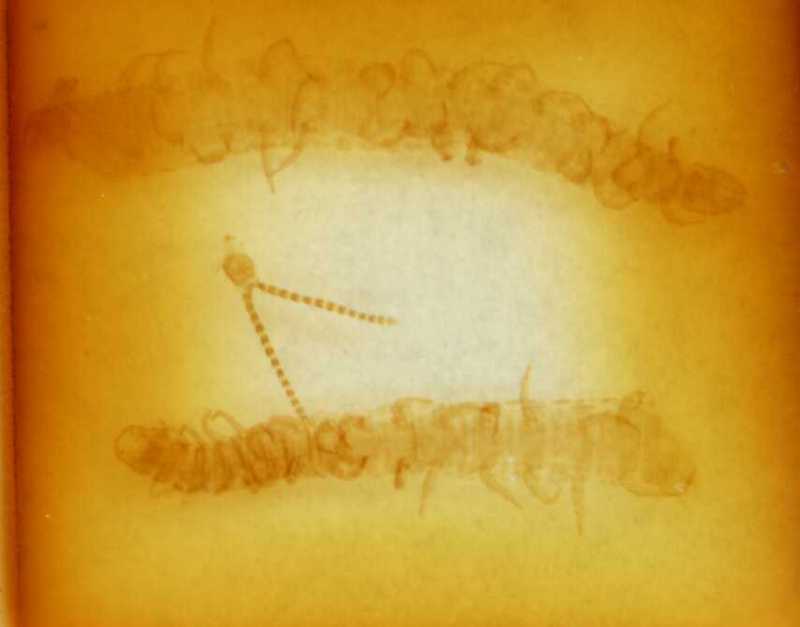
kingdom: Animalia
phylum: Arthropoda
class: Chilopoda
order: Geophilomorpha
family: Linotaeniidae
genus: Strigamia
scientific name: Strigamia engadina
